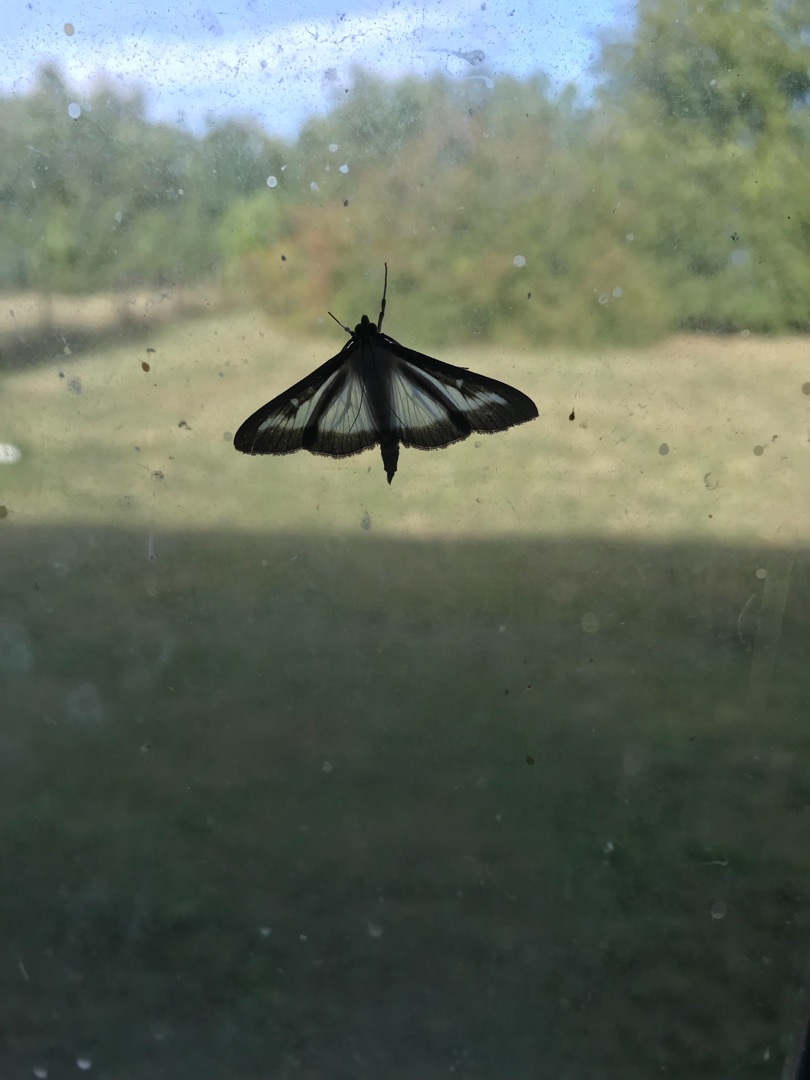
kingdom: Animalia
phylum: Arthropoda
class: Insecta
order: Lepidoptera
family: Crambidae
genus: Cydalima
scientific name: Cydalima perspectalis
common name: Buksbomhalvmøl
